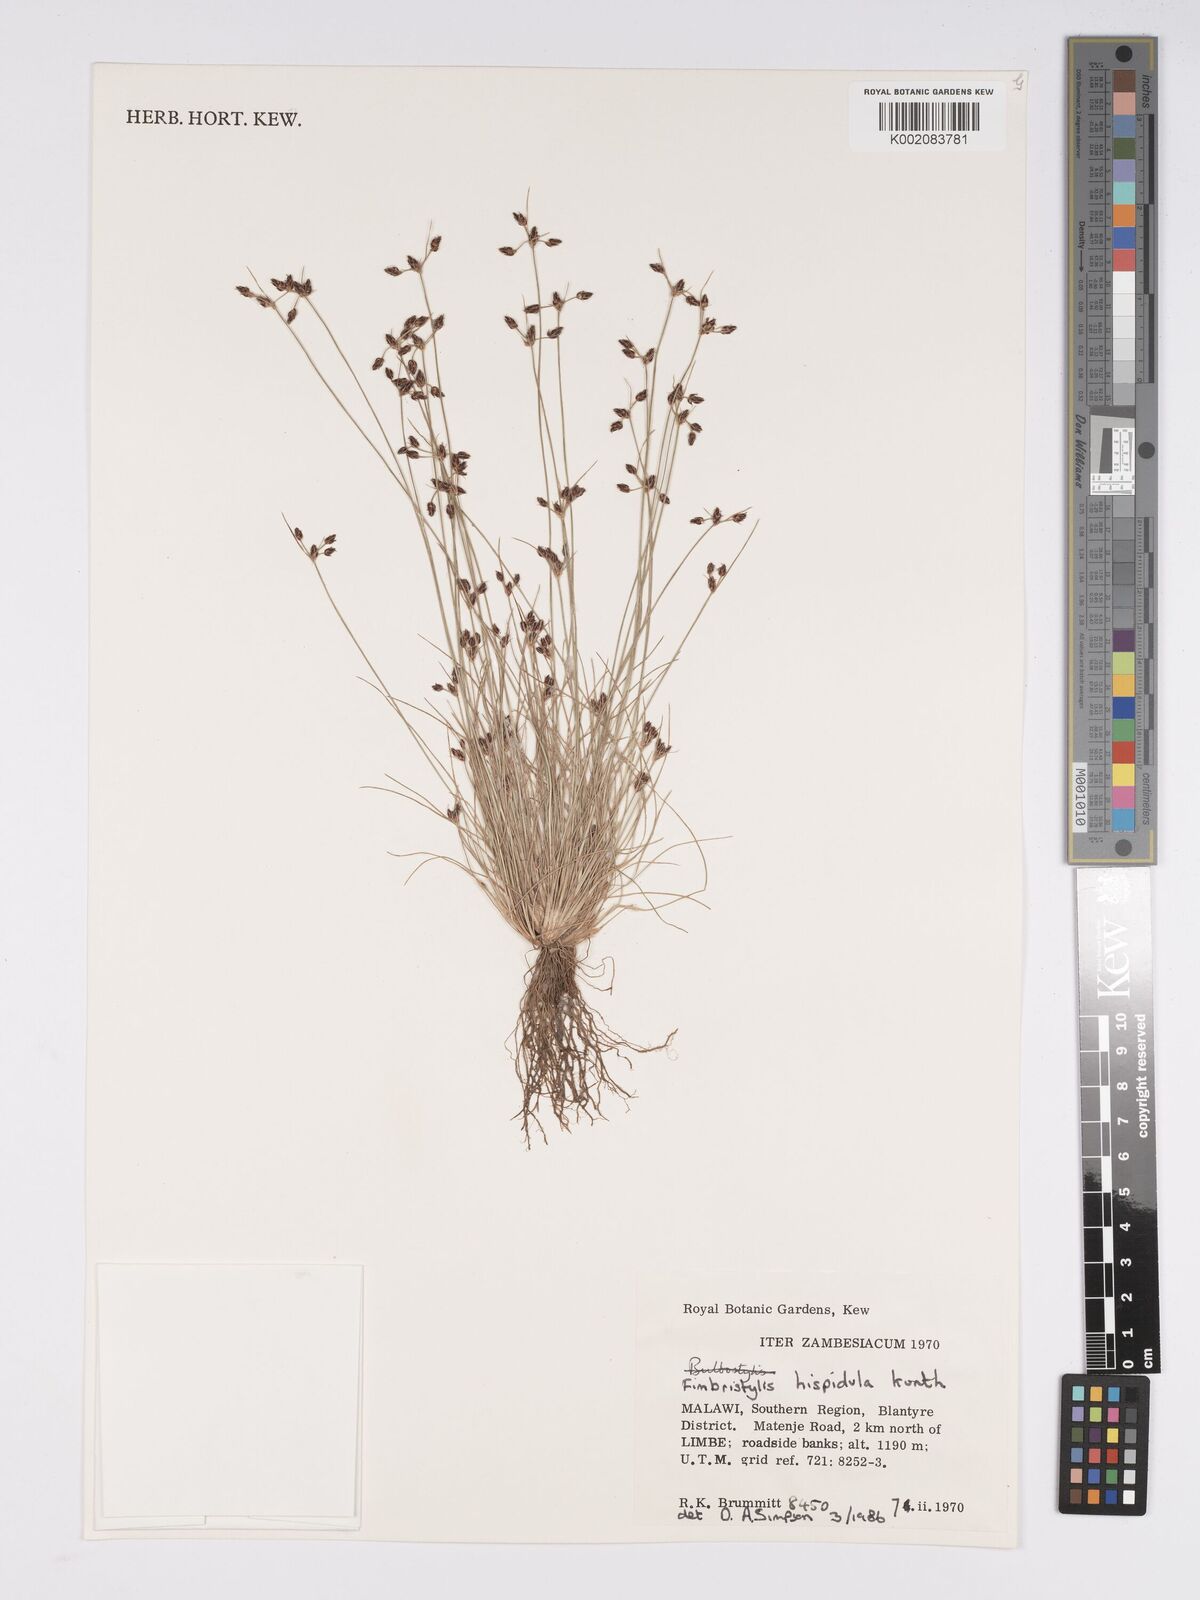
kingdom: Plantae
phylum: Tracheophyta
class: Liliopsida
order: Poales
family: Cyperaceae
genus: Bulbostylis
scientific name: Bulbostylis hispidula
